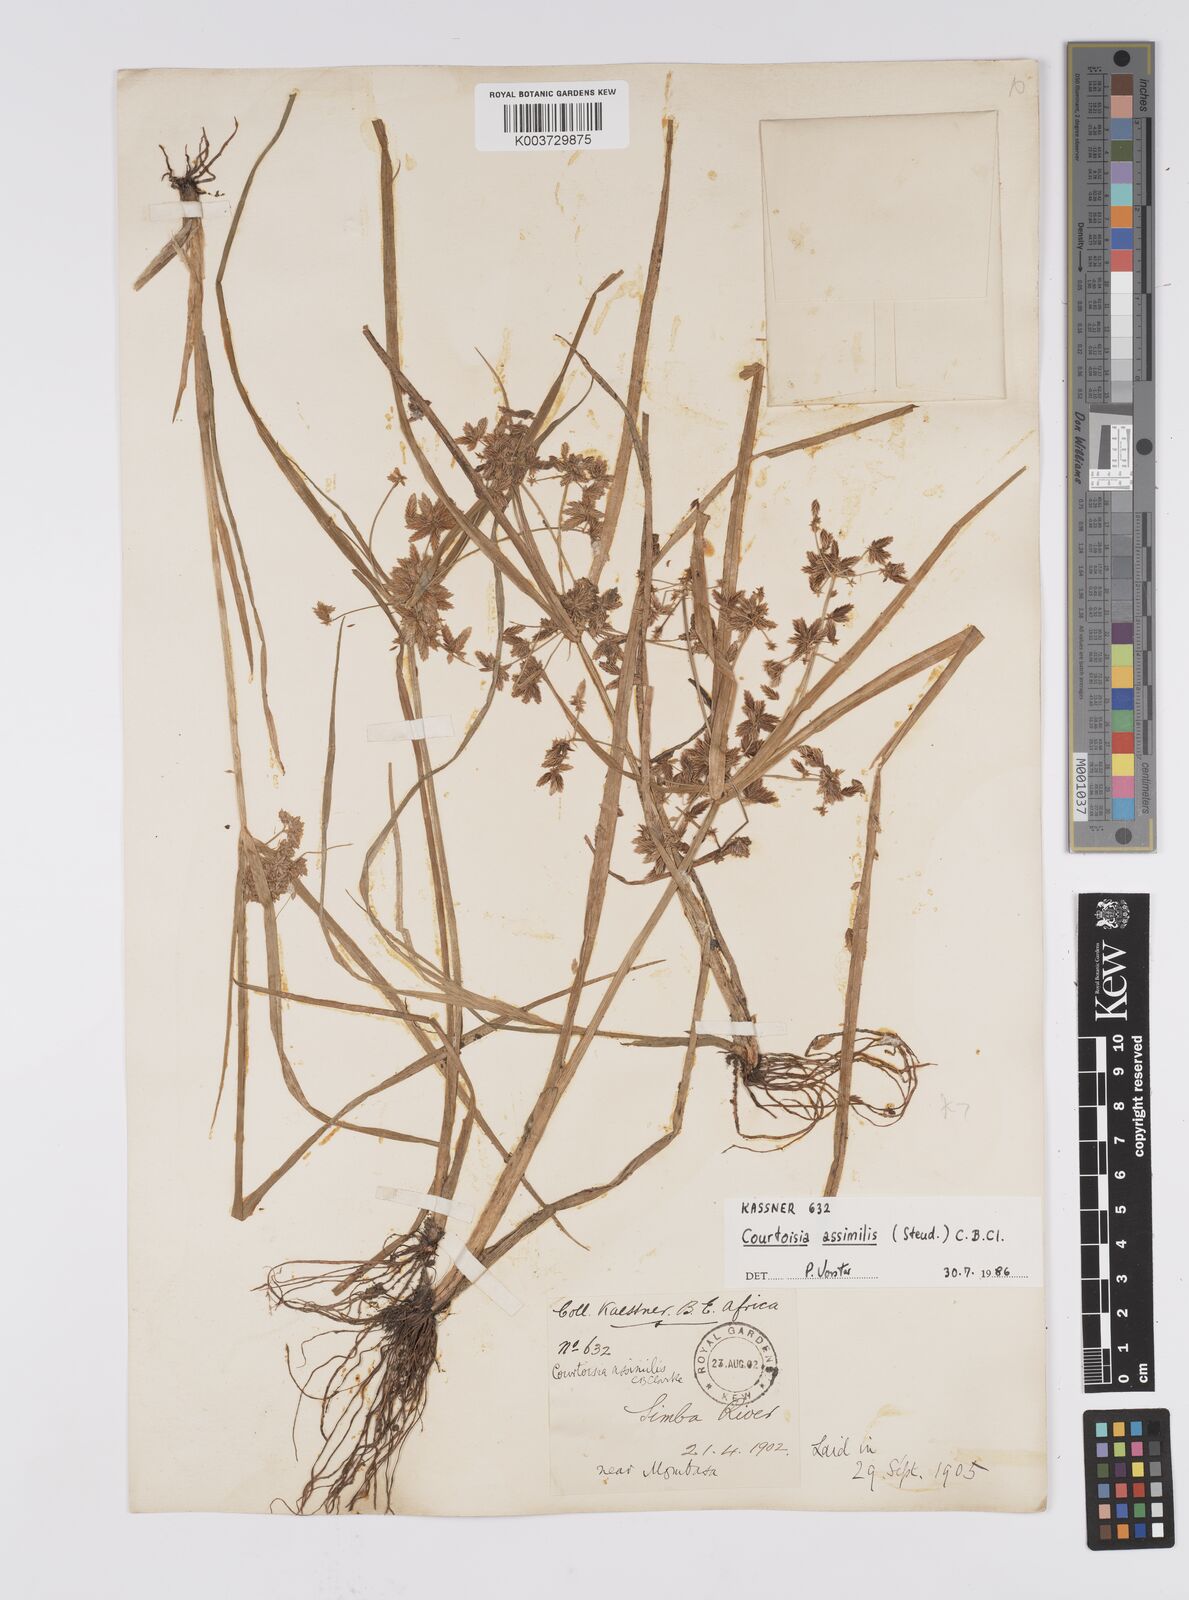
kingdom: Plantae
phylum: Tracheophyta
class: Liliopsida
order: Poales
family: Cyperaceae
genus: Cyperus
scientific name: Cyperus assimilis
